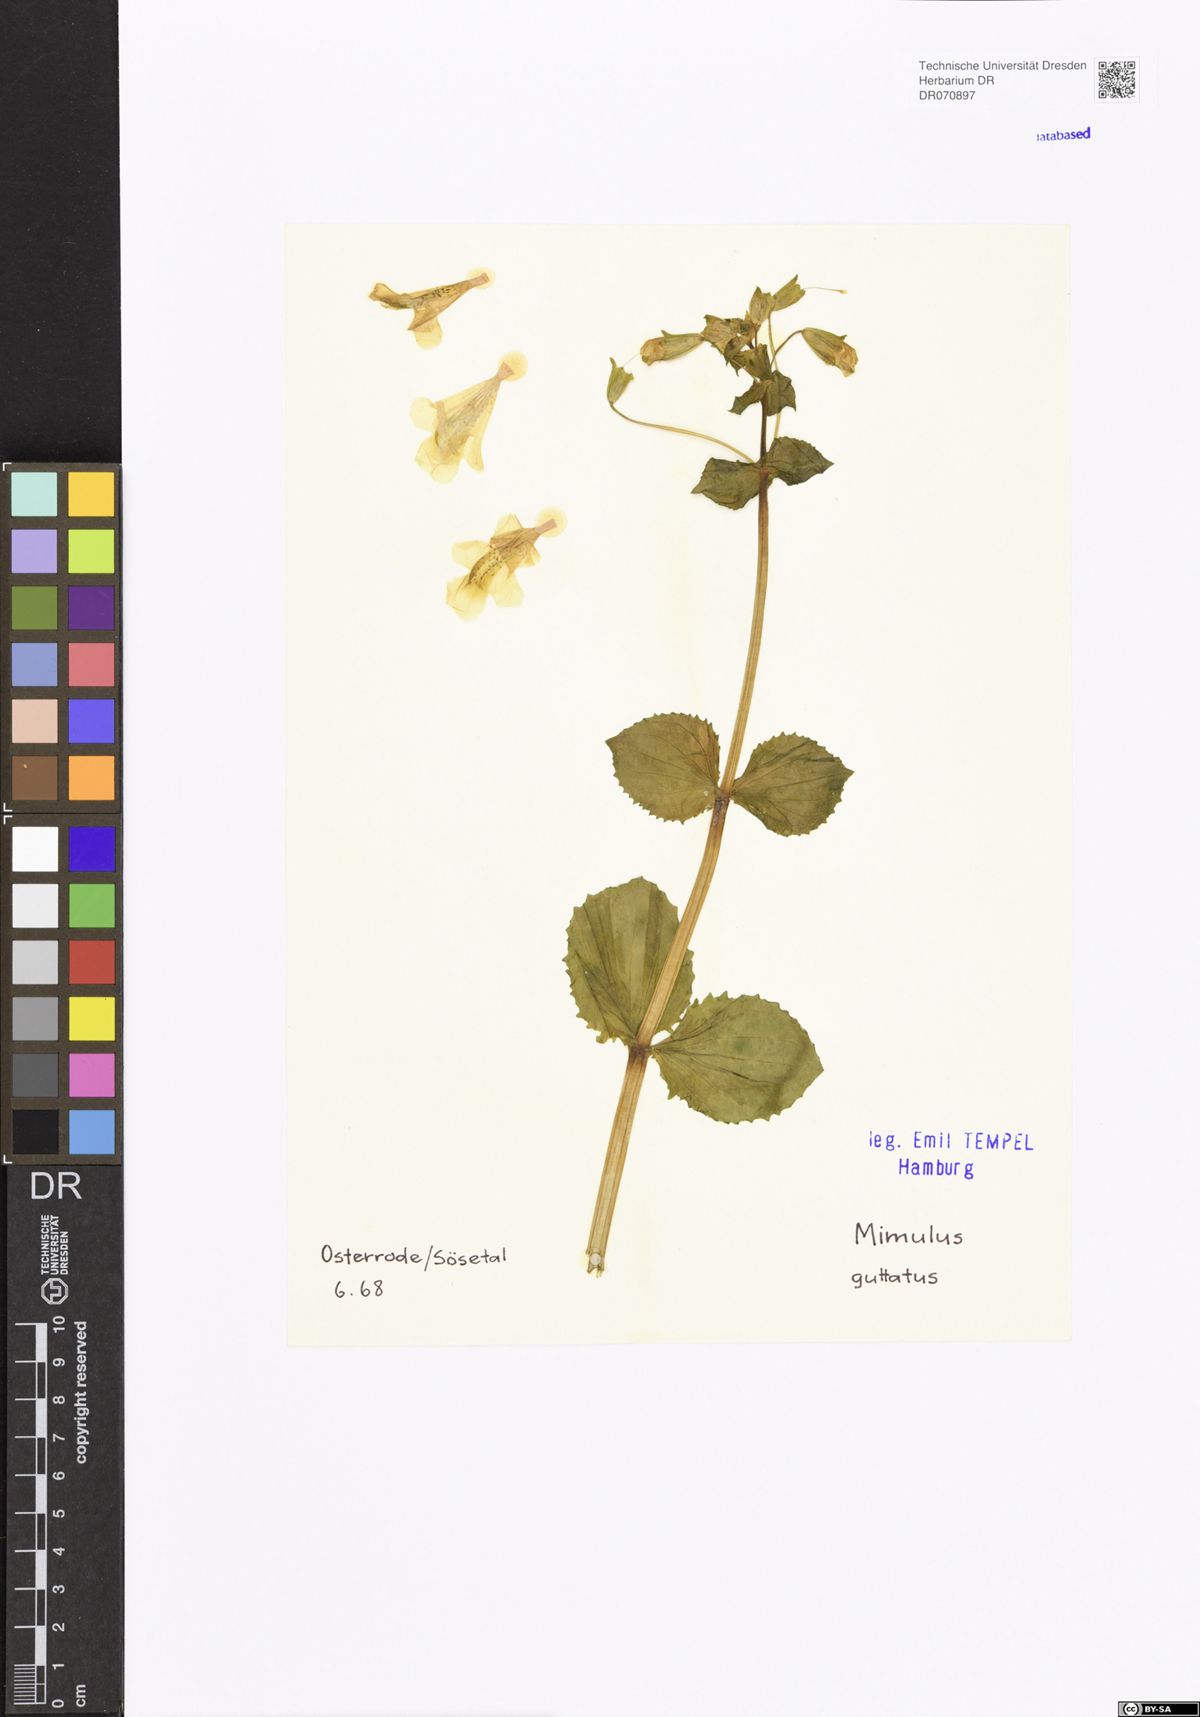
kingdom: Plantae
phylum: Tracheophyta
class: Magnoliopsida
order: Lamiales
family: Phrymaceae
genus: Erythranthe
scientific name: Erythranthe guttata
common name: Monkeyflower
